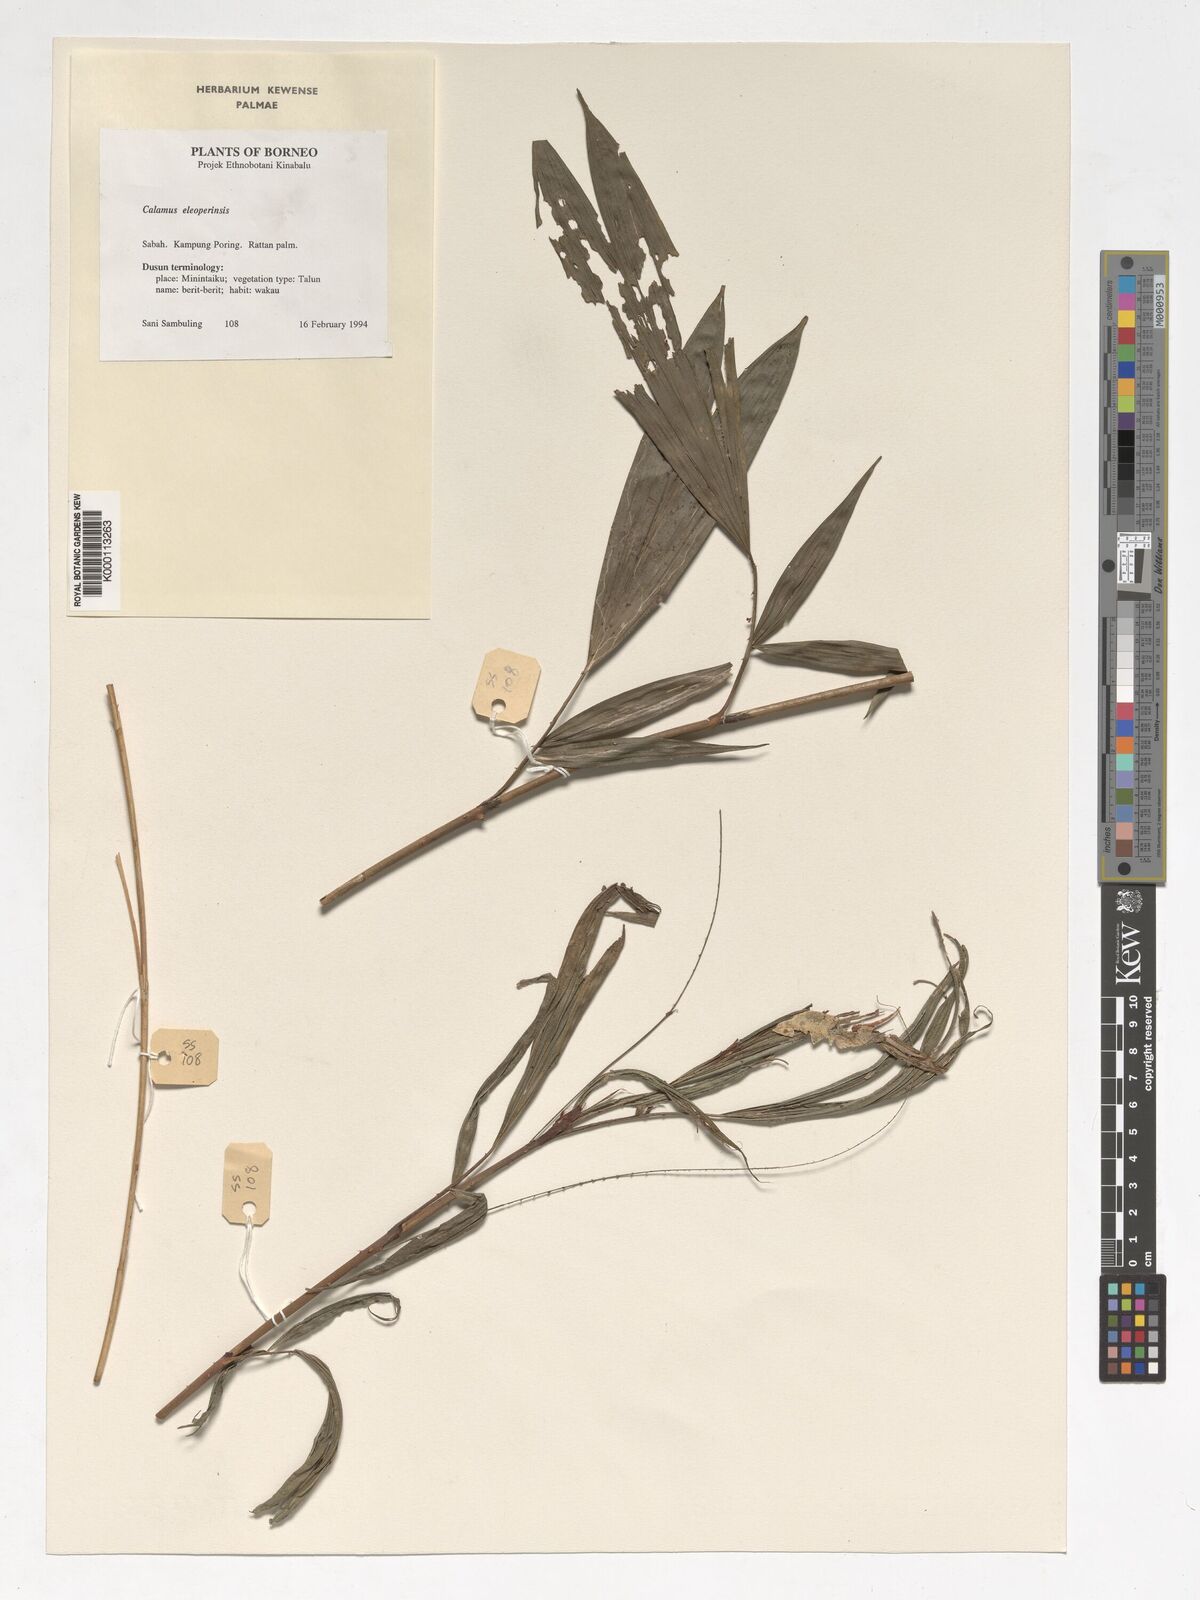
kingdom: Plantae
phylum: Tracheophyta
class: Liliopsida
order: Arecales
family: Arecaceae
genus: Calamus
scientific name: Calamus javensis
